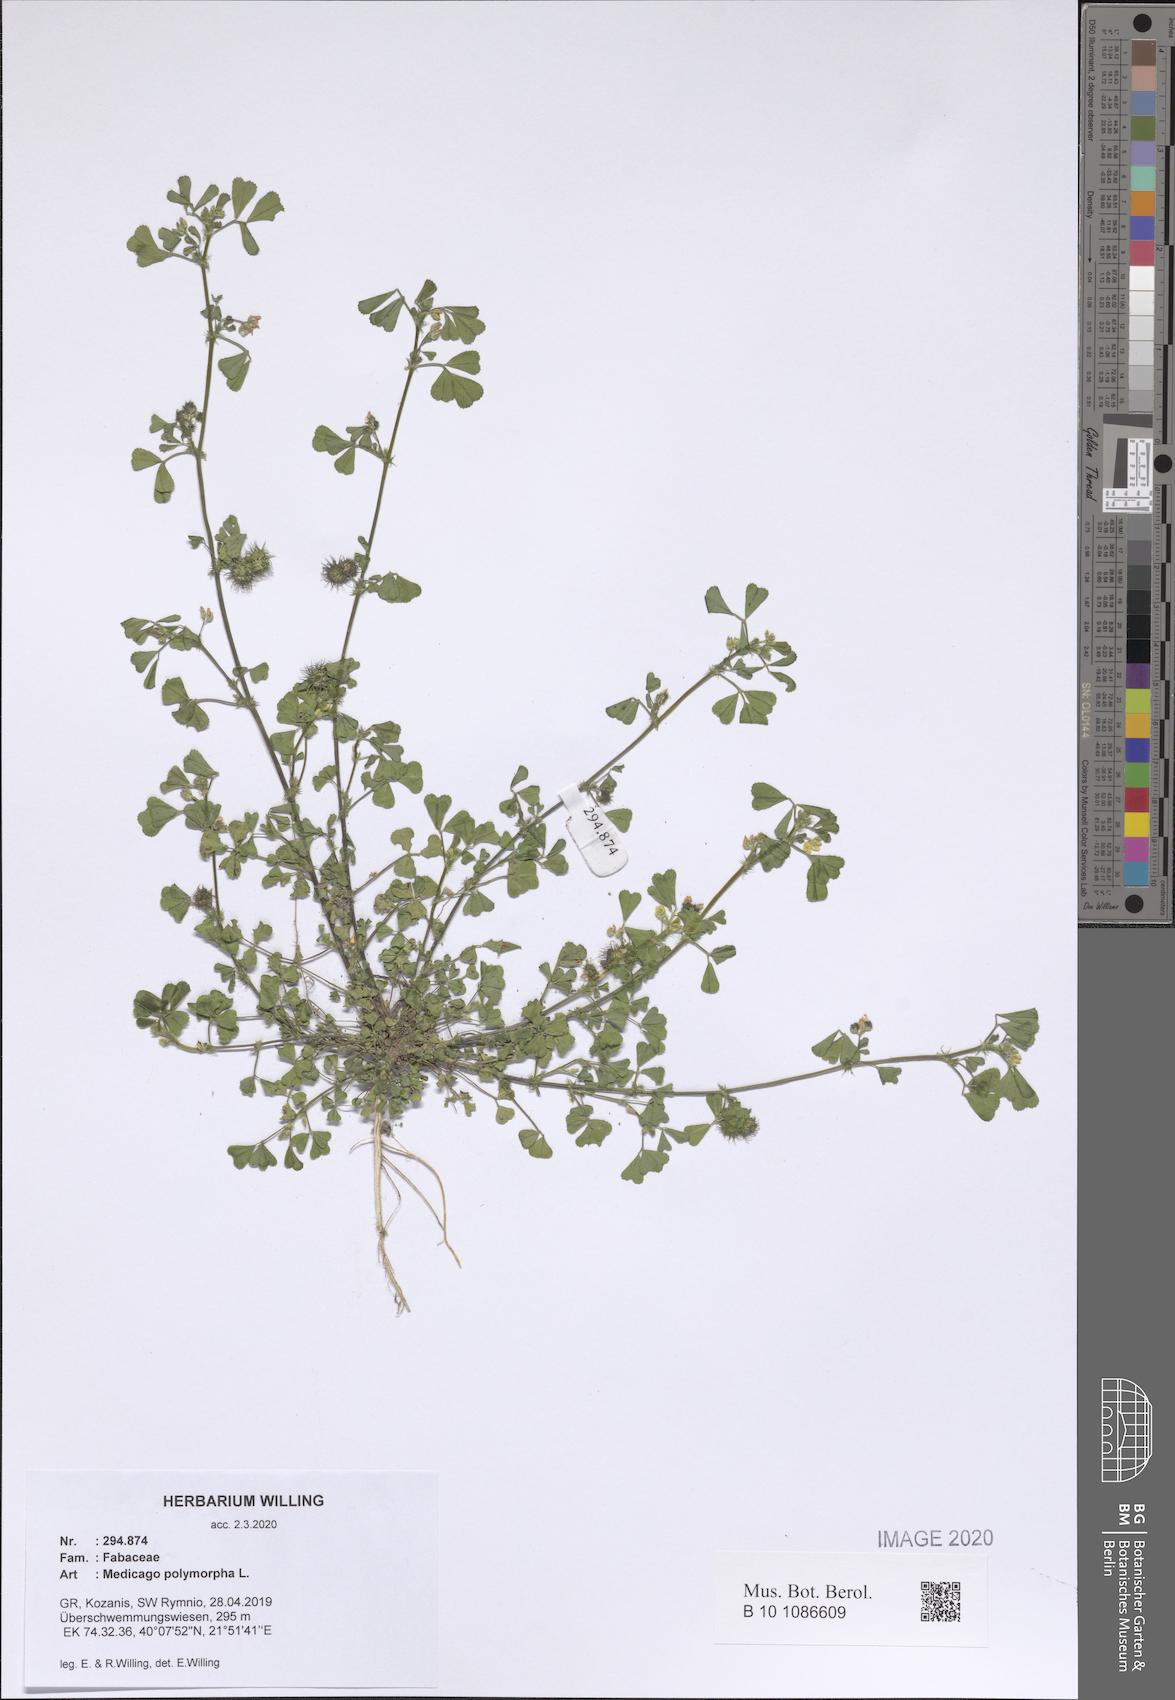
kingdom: Plantae
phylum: Tracheophyta
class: Magnoliopsida
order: Fabales
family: Fabaceae
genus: Medicago
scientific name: Medicago polymorpha
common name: Burclover
